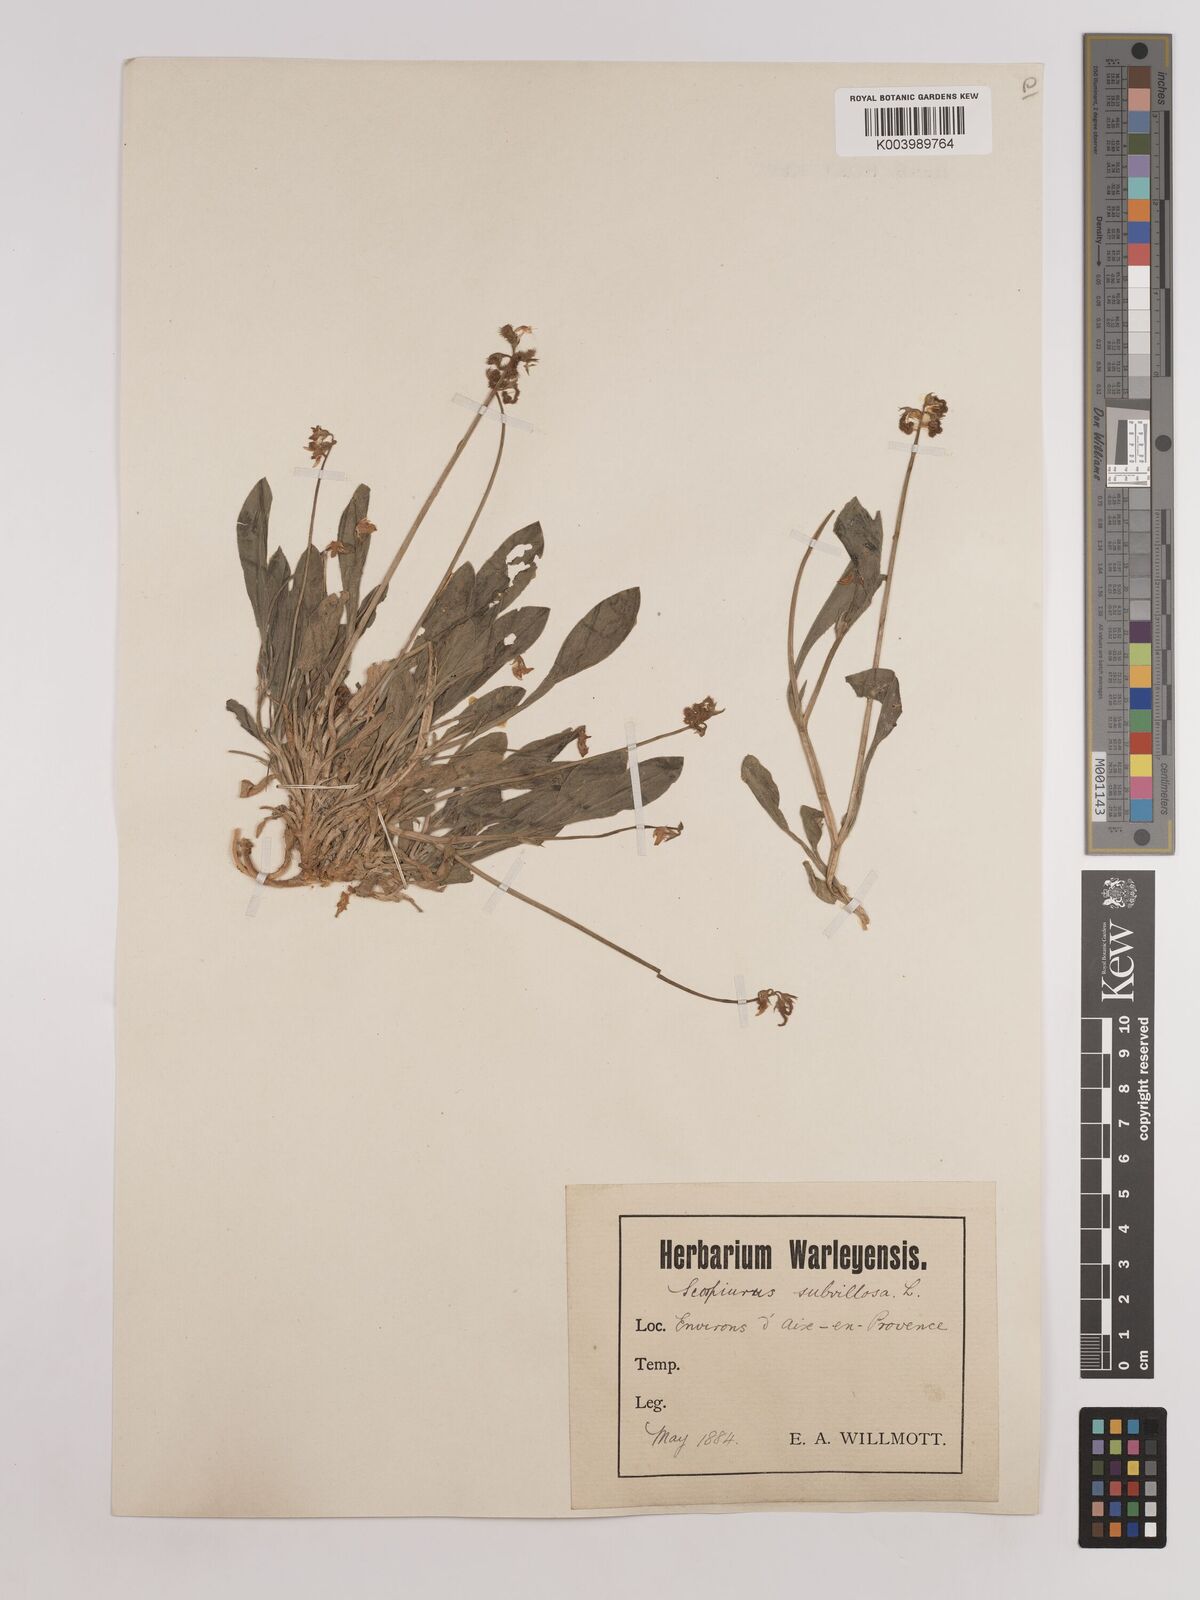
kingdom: Plantae
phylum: Tracheophyta
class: Magnoliopsida
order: Fabales
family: Fabaceae
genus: Scorpiurus
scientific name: Scorpiurus muricatus
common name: Caterpillar-plant
